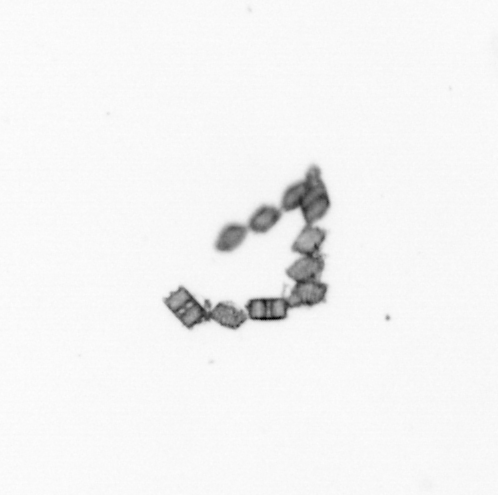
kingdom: Chromista
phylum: Ochrophyta
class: Bacillariophyceae
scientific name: Bacillariophyceae
